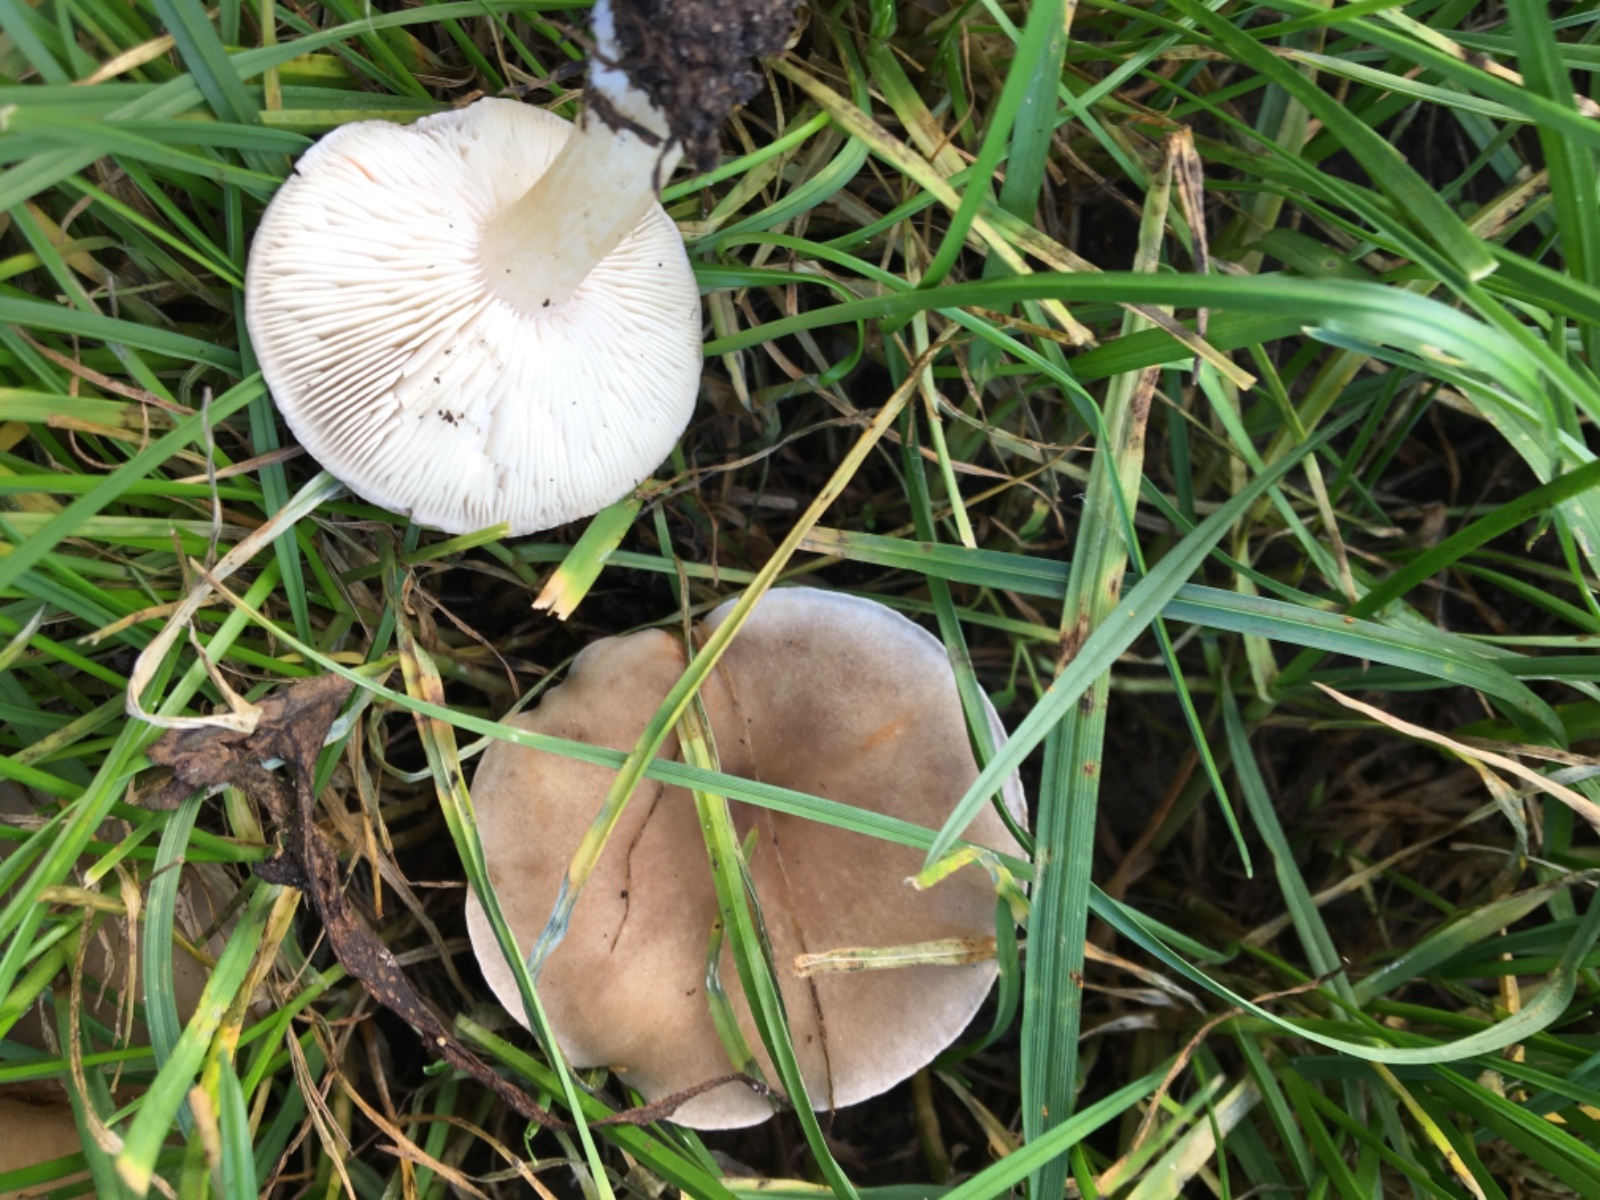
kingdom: Fungi
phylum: Basidiomycota
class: Agaricomycetes
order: Agaricales
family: Tricholomataceae
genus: Melanoleuca
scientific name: Melanoleuca
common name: munkehat
